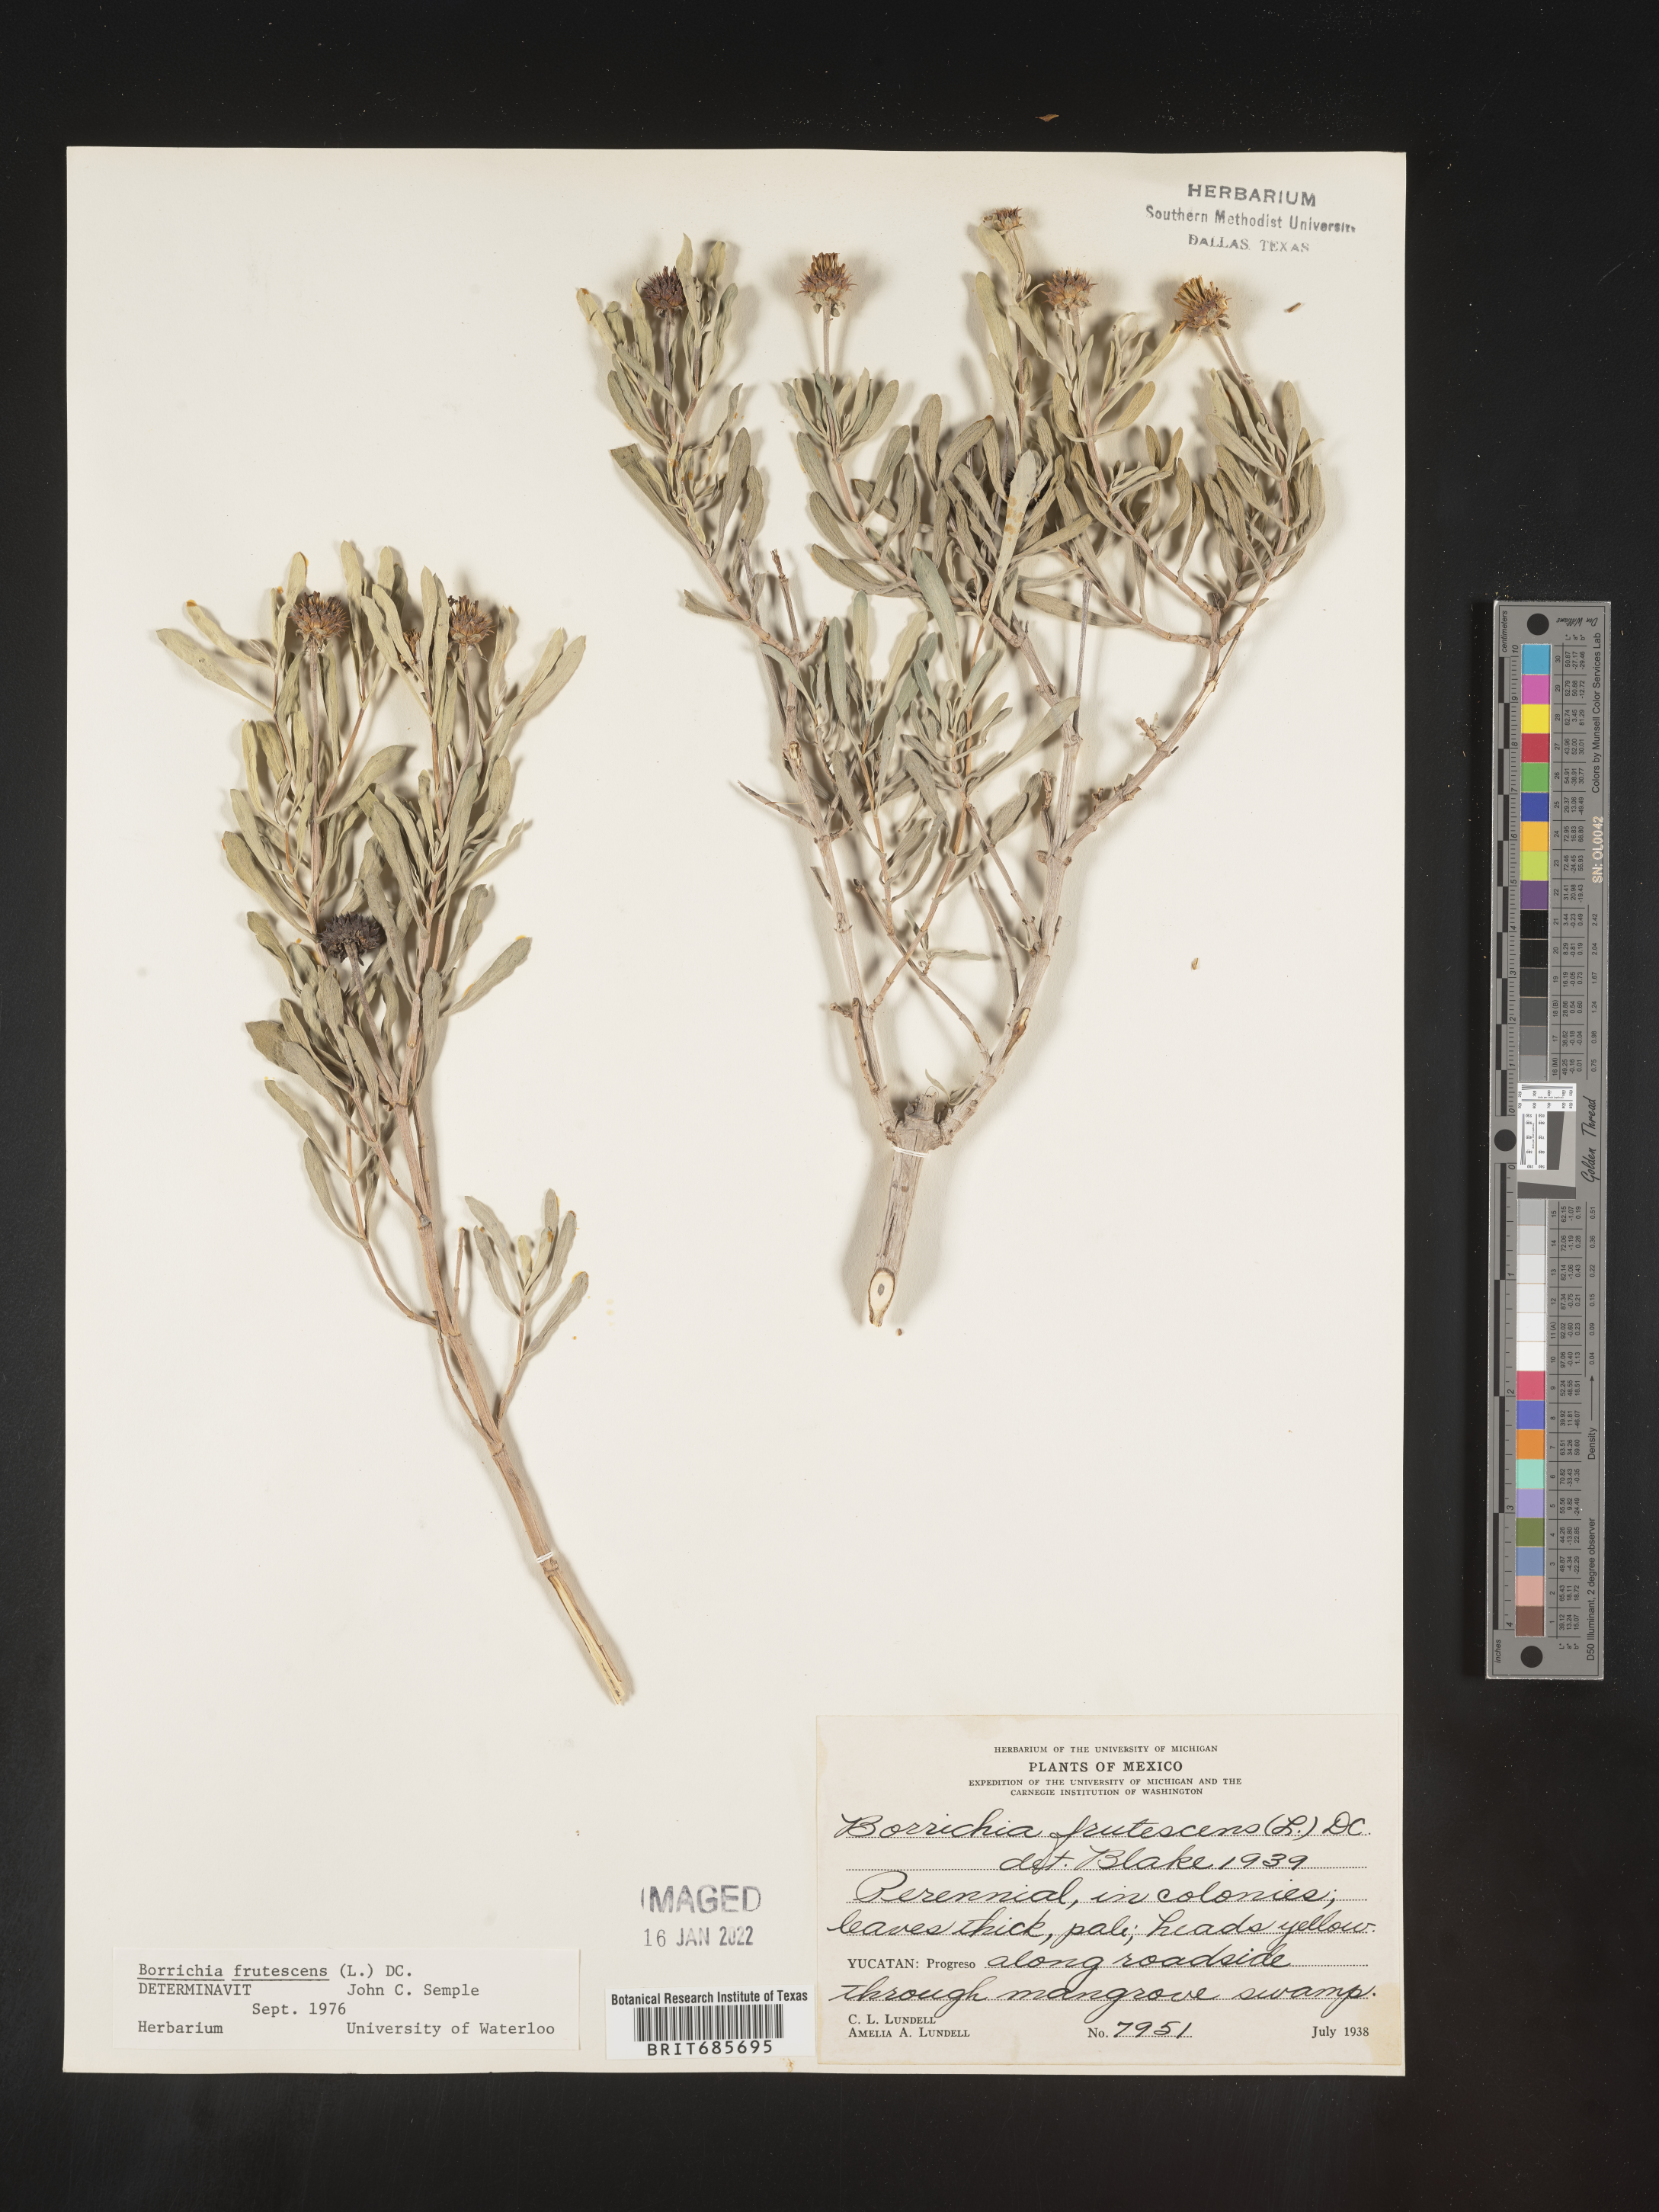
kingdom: Plantae
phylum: Tracheophyta
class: Magnoliopsida
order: Asterales
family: Asteraceae
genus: Borrichia
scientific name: Borrichia
